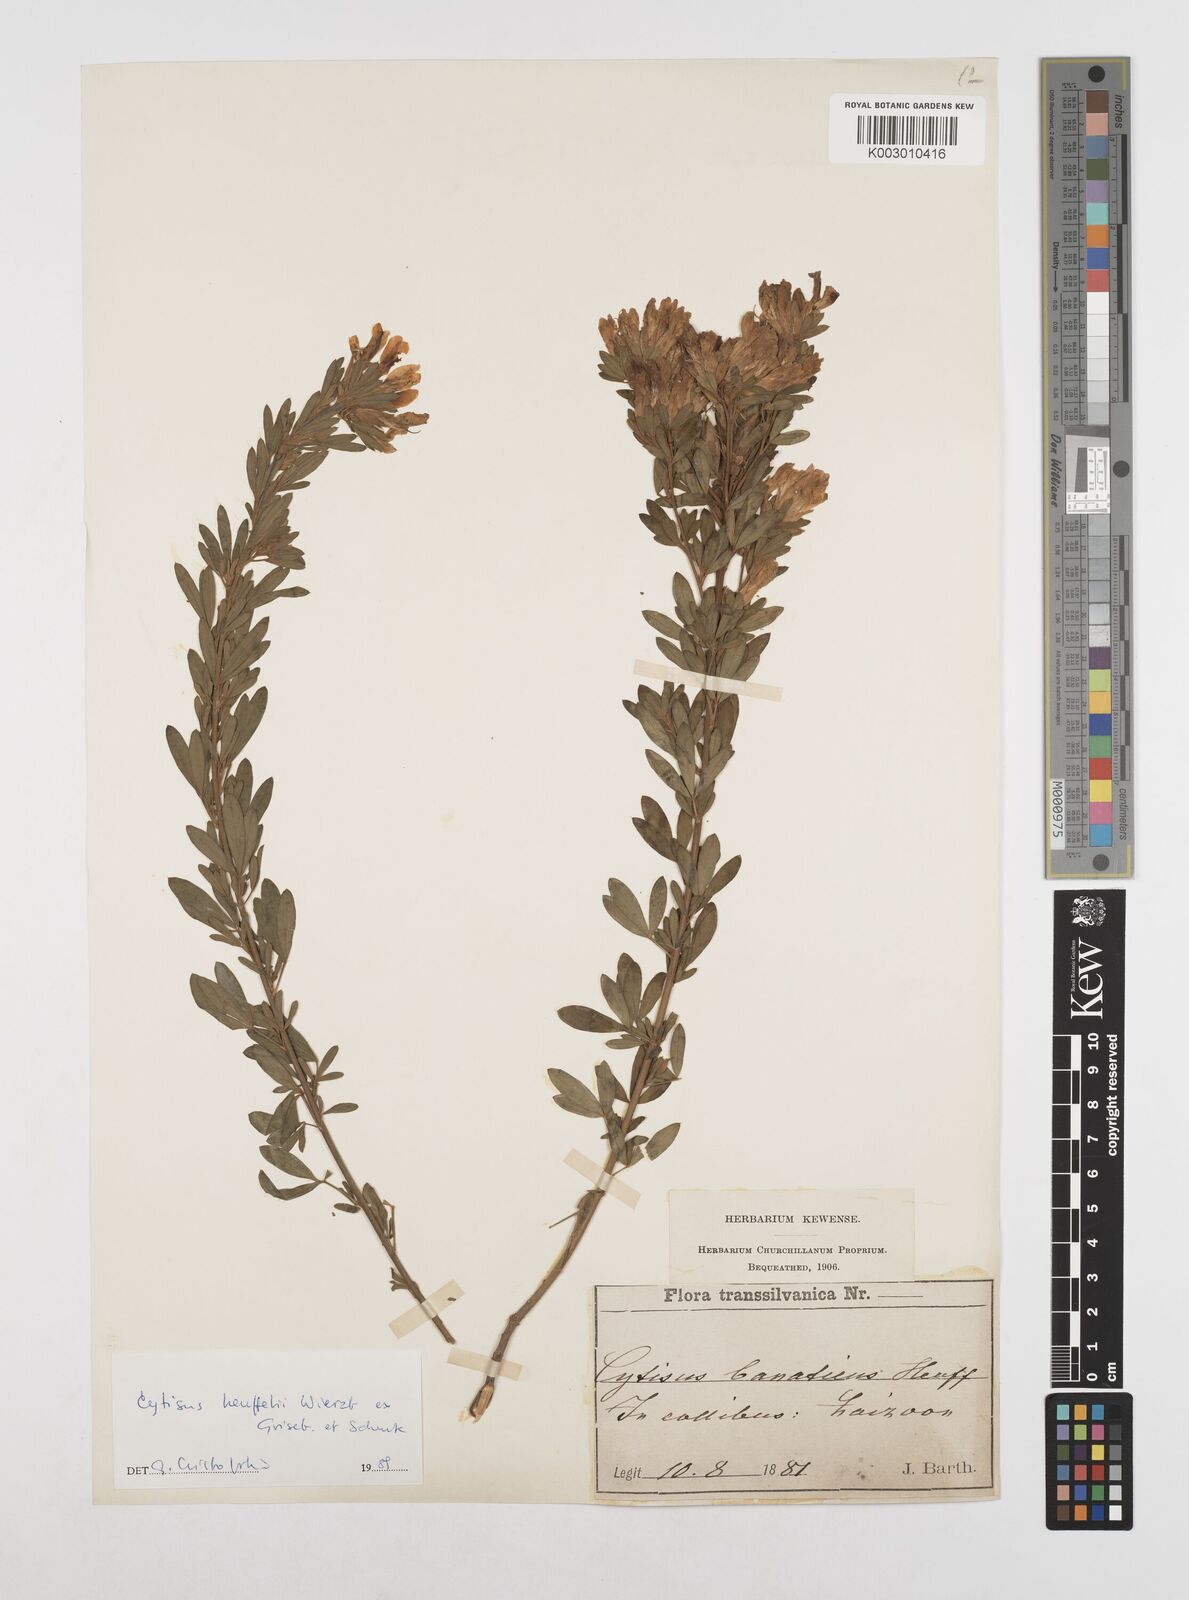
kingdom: Plantae
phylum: Tracheophyta
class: Magnoliopsida
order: Fabales
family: Fabaceae
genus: Cytisophyllum
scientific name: Cytisophyllum Cytisus heuffelii
